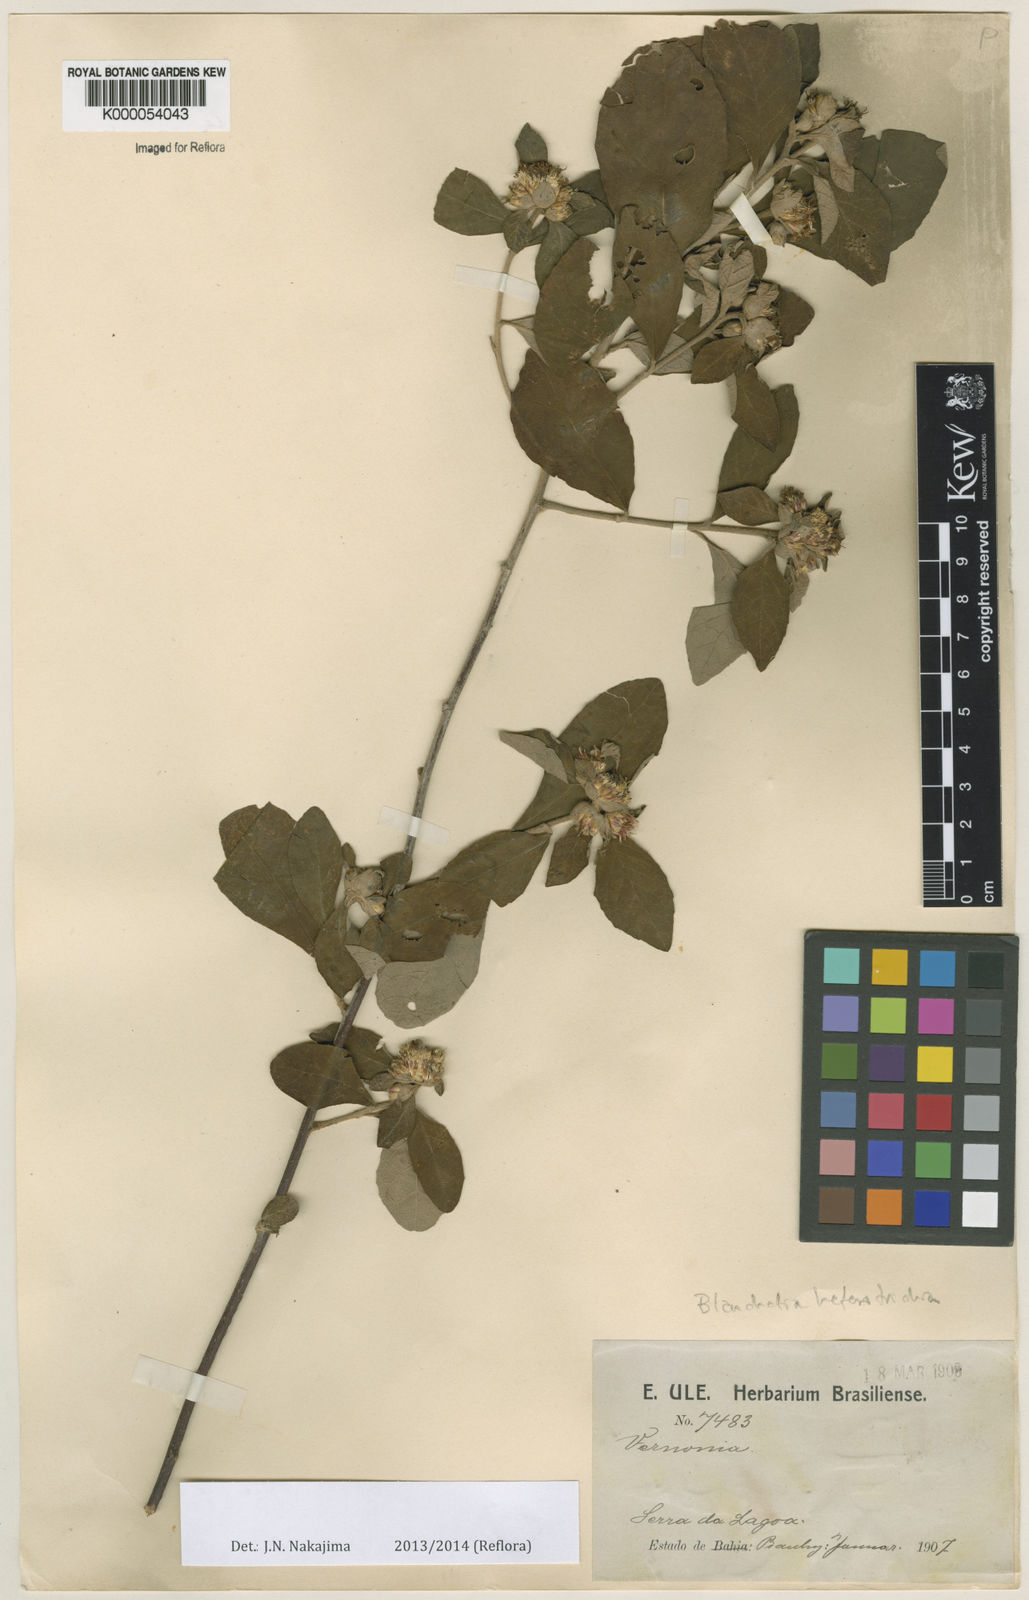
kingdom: Plantae
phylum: Tracheophyta
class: Magnoliopsida
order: Asterales
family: Asteraceae
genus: Blanchetia
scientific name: Blanchetia heterotricha
